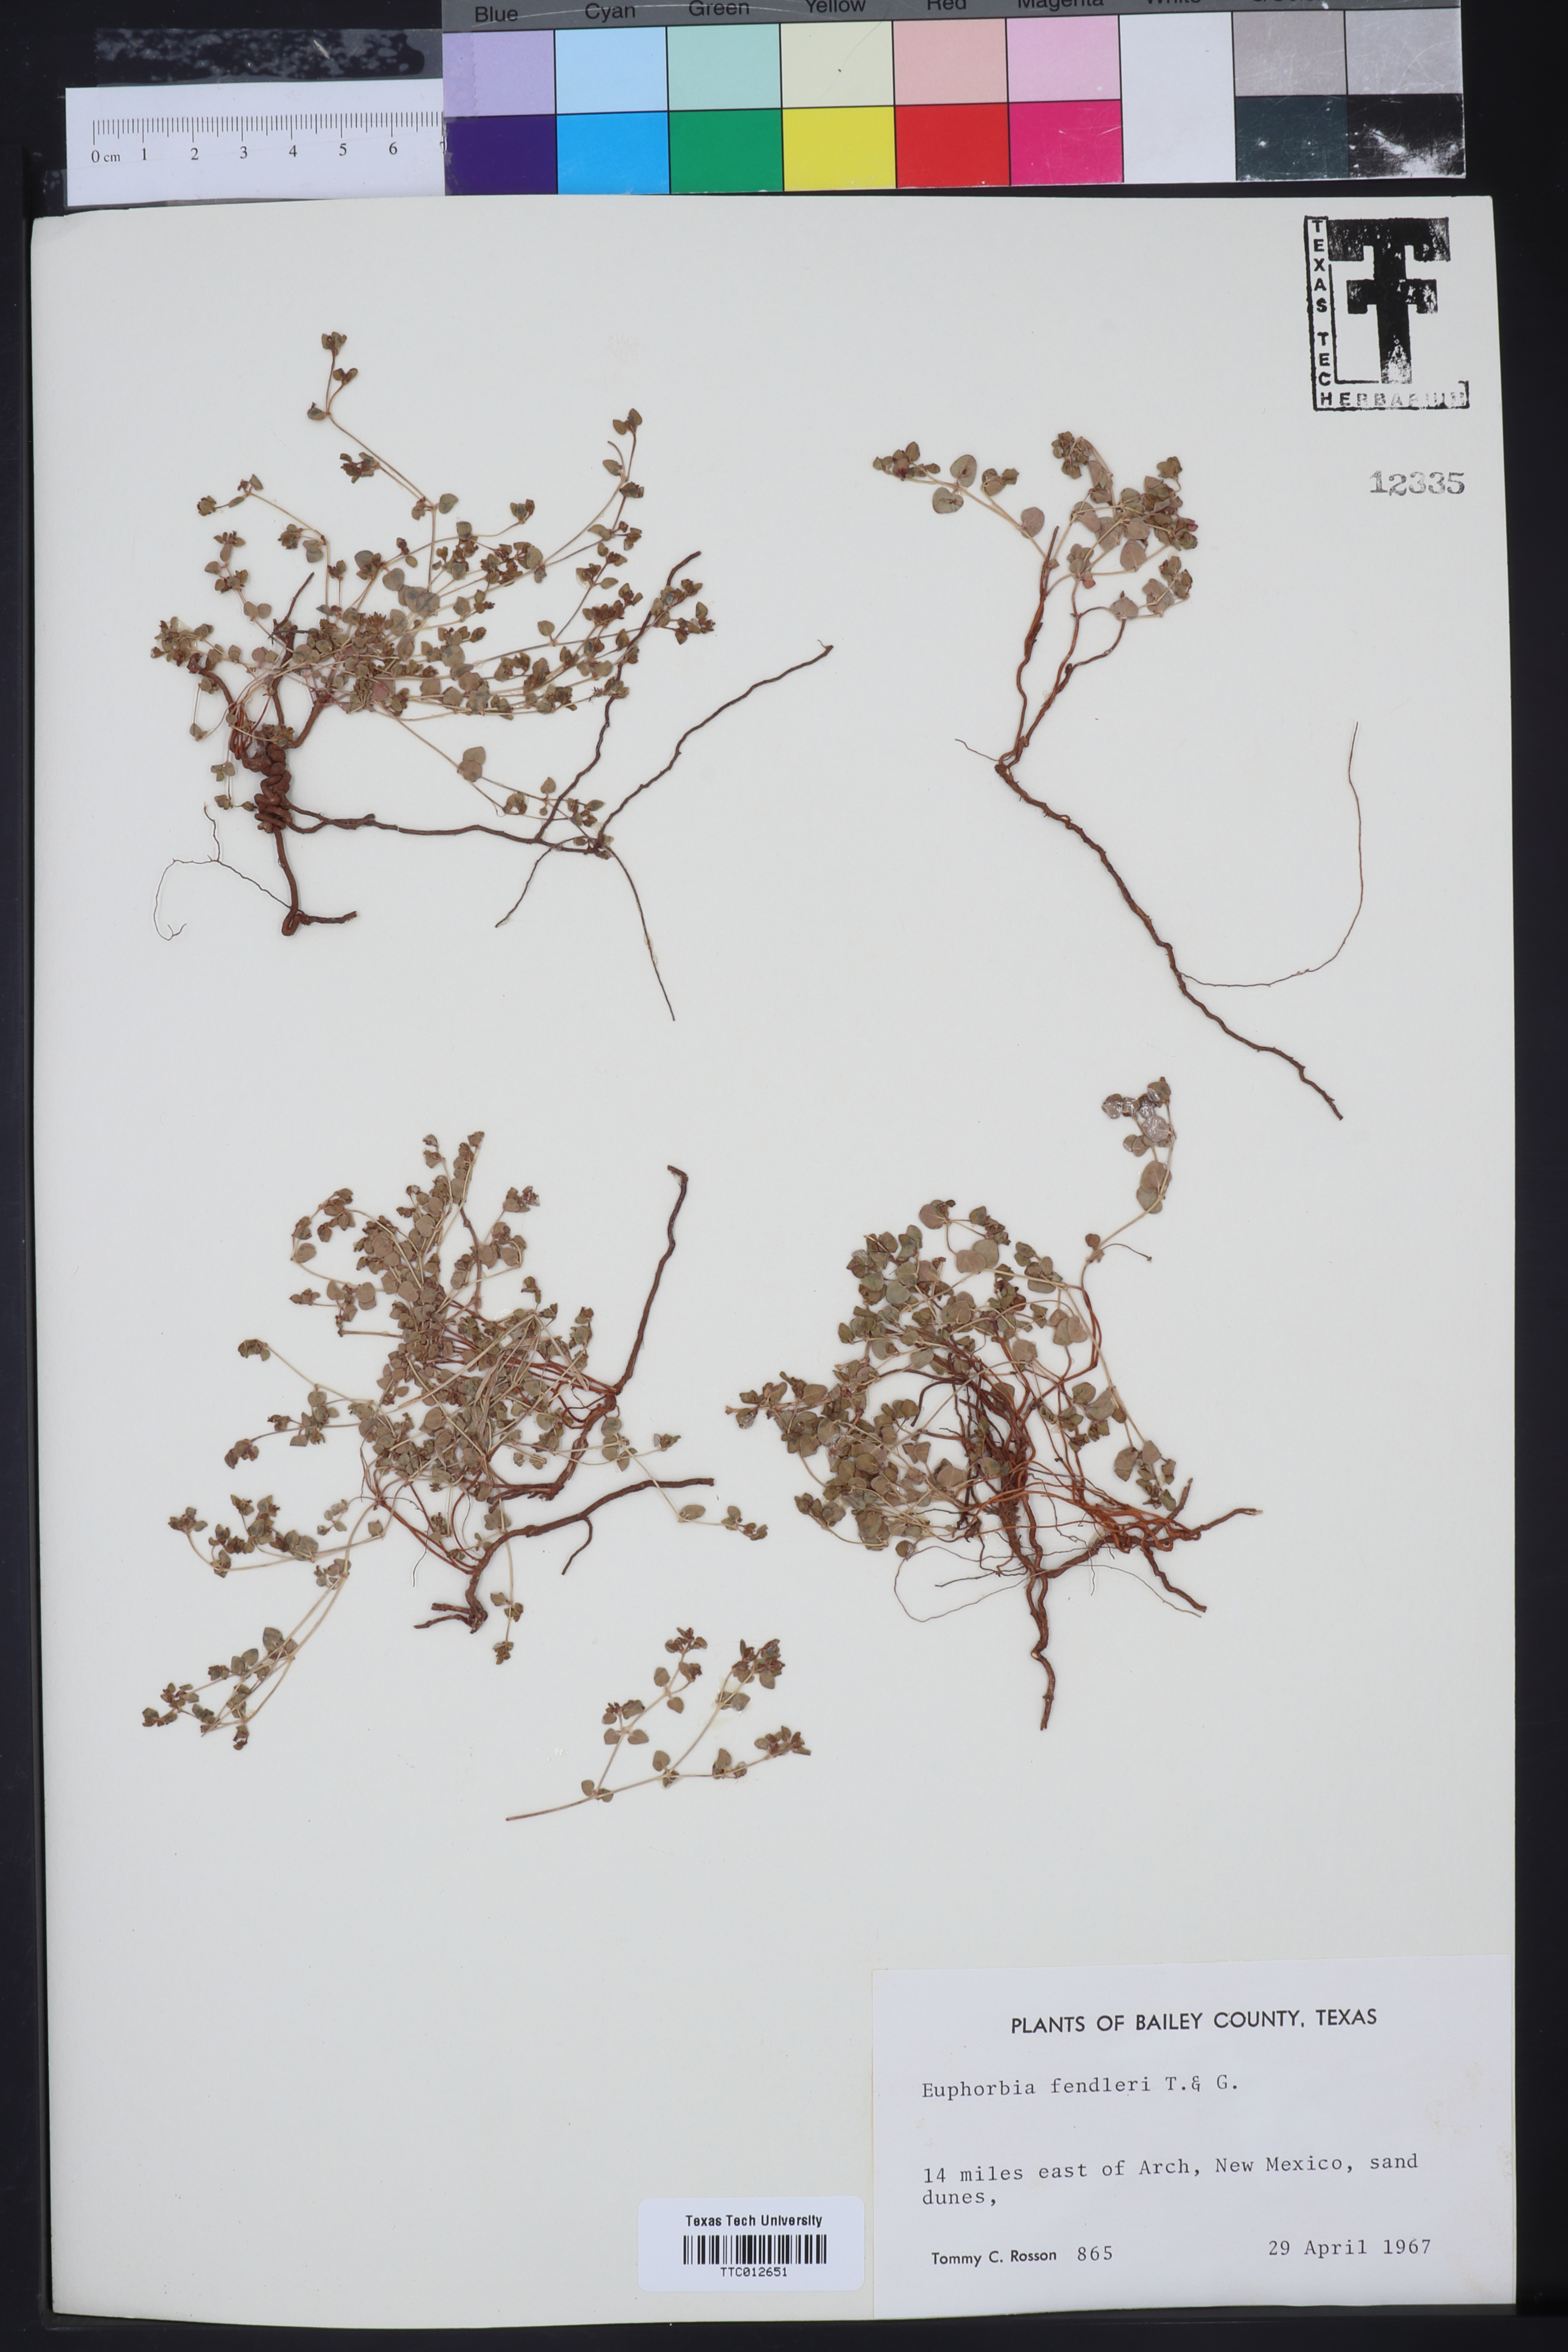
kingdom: Plantae
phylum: Tracheophyta
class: Magnoliopsida
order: Malpighiales
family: Euphorbiaceae
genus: Euphorbia
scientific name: Euphorbia fendleri
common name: Fendler's euphorbia
